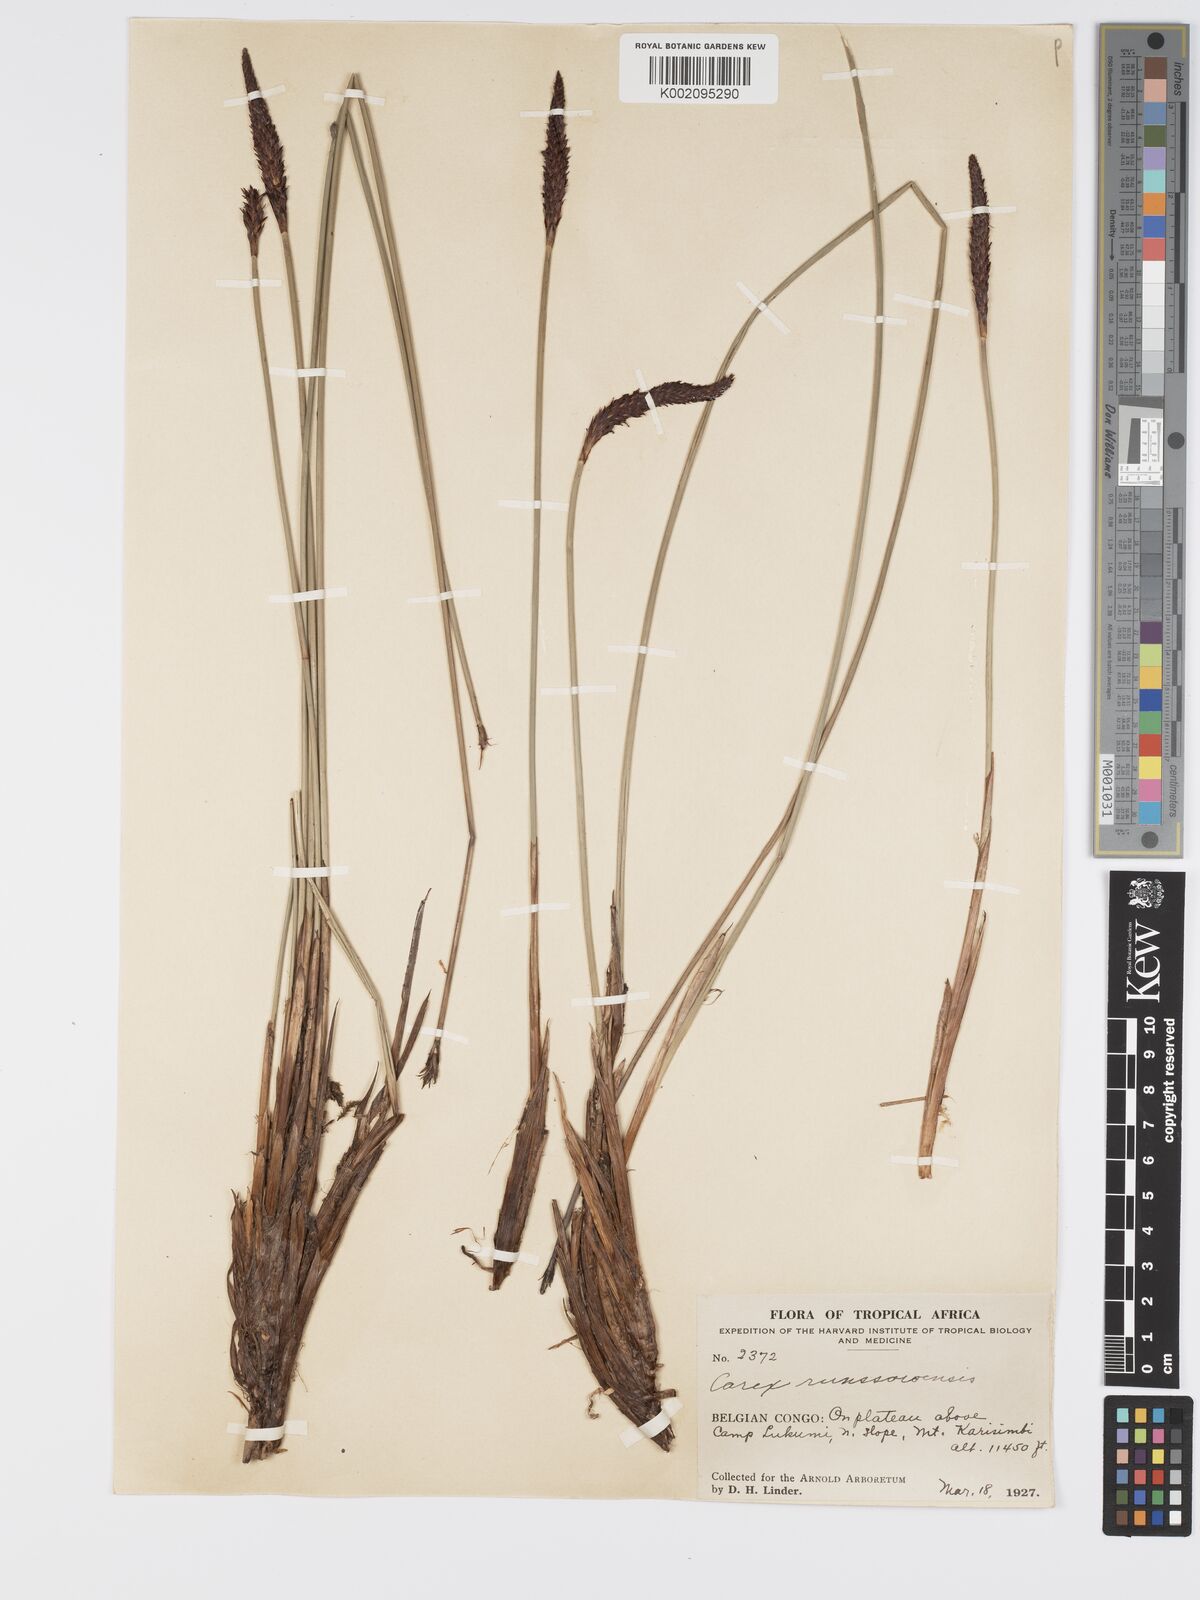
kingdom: Plantae
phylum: Tracheophyta
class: Liliopsida
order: Poales
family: Cyperaceae
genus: Carex
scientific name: Carex runssoroensis
